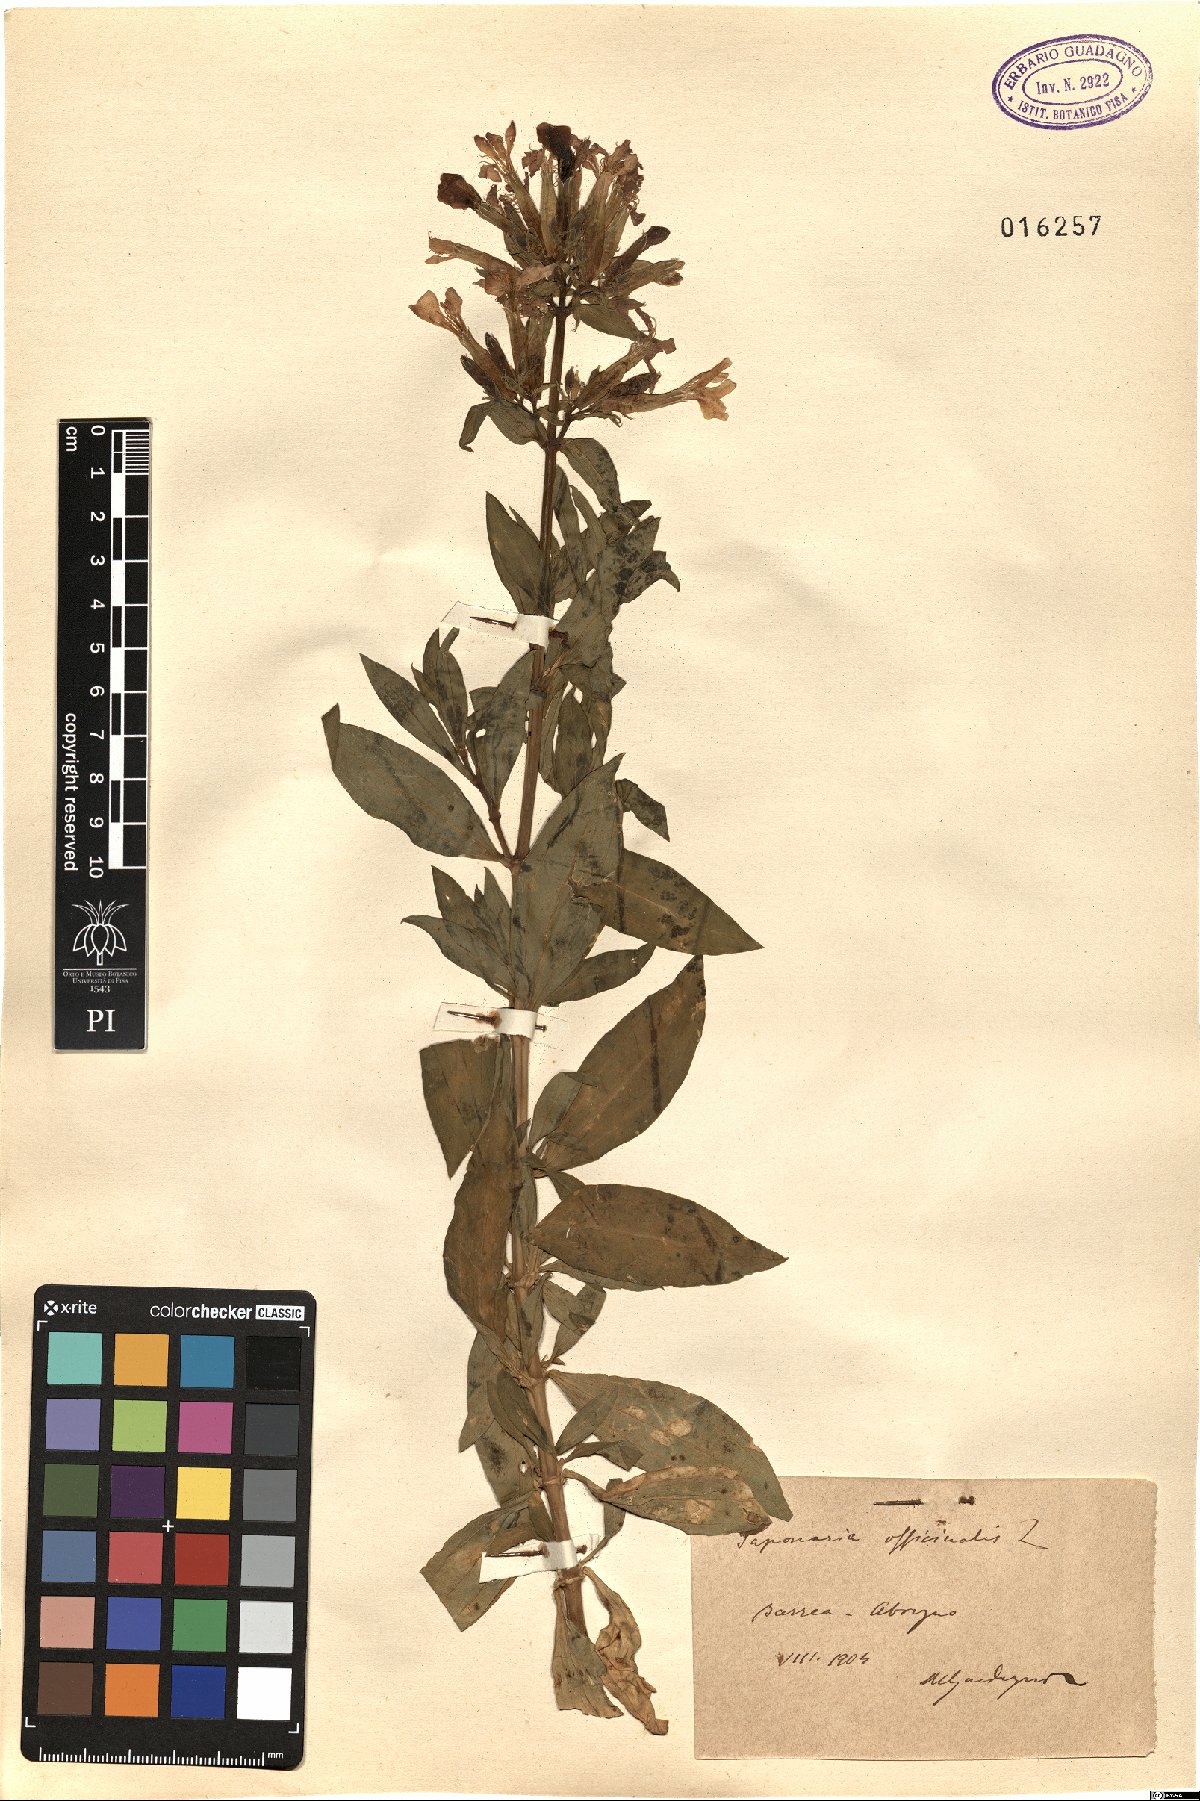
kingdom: Plantae
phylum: Tracheophyta
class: Magnoliopsida
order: Caryophyllales
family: Caryophyllaceae
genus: Saponaria
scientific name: Saponaria officinalis
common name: Soapwort
